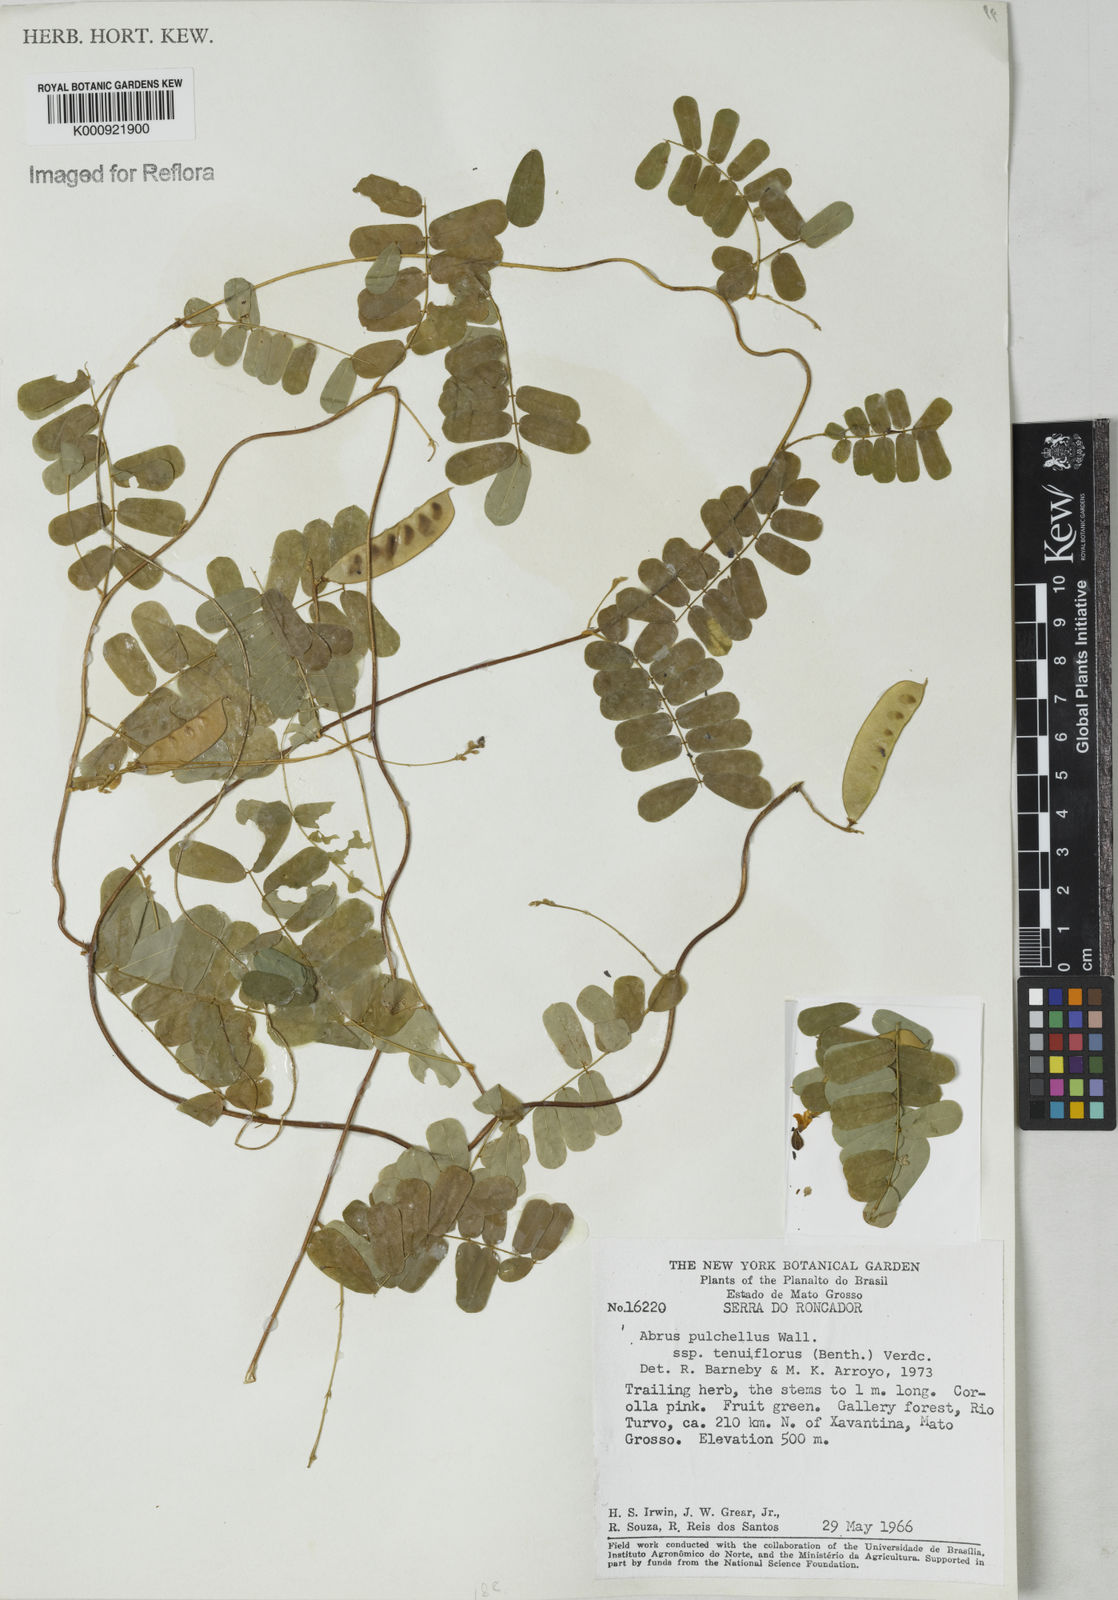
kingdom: Plantae
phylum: Tracheophyta
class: Magnoliopsida
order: Fabales
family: Fabaceae
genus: Abrus
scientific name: Abrus melanospermus
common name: Licorice-root
